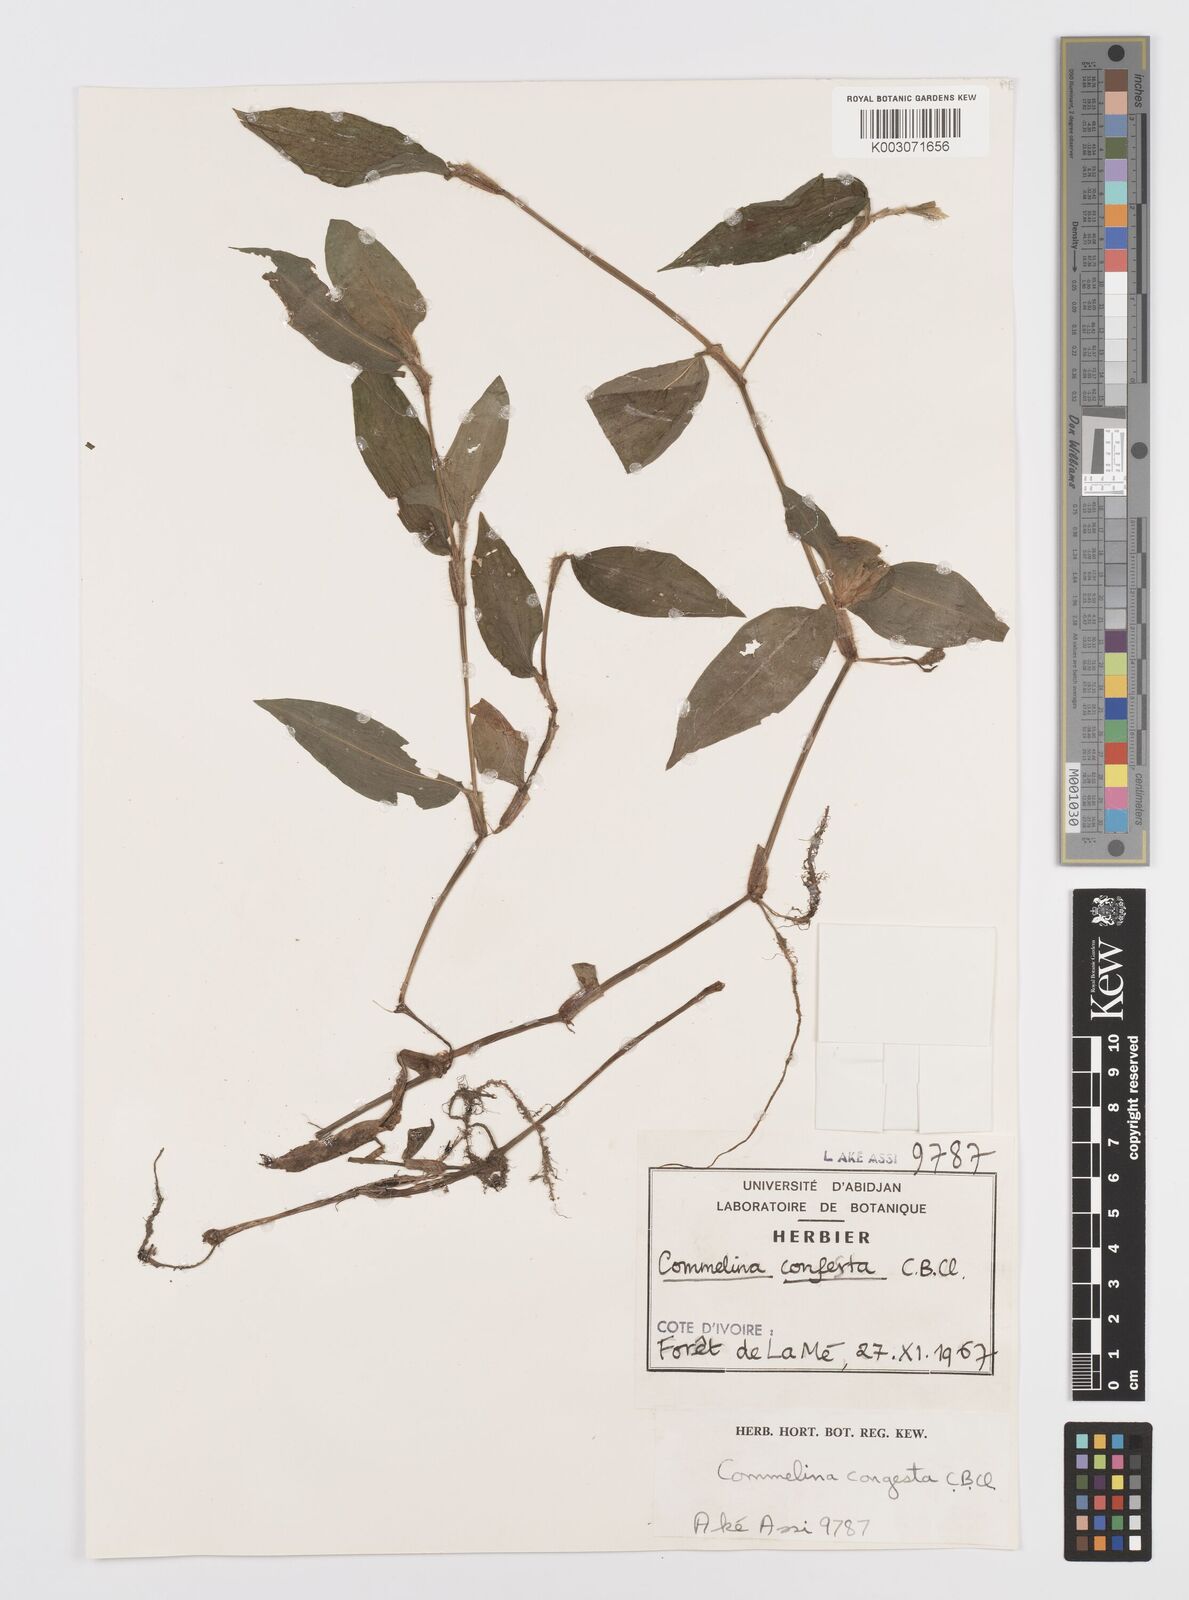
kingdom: Plantae
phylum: Tracheophyta
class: Liliopsida
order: Commelinales
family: Commelinaceae
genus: Commelina
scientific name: Commelina congesta
